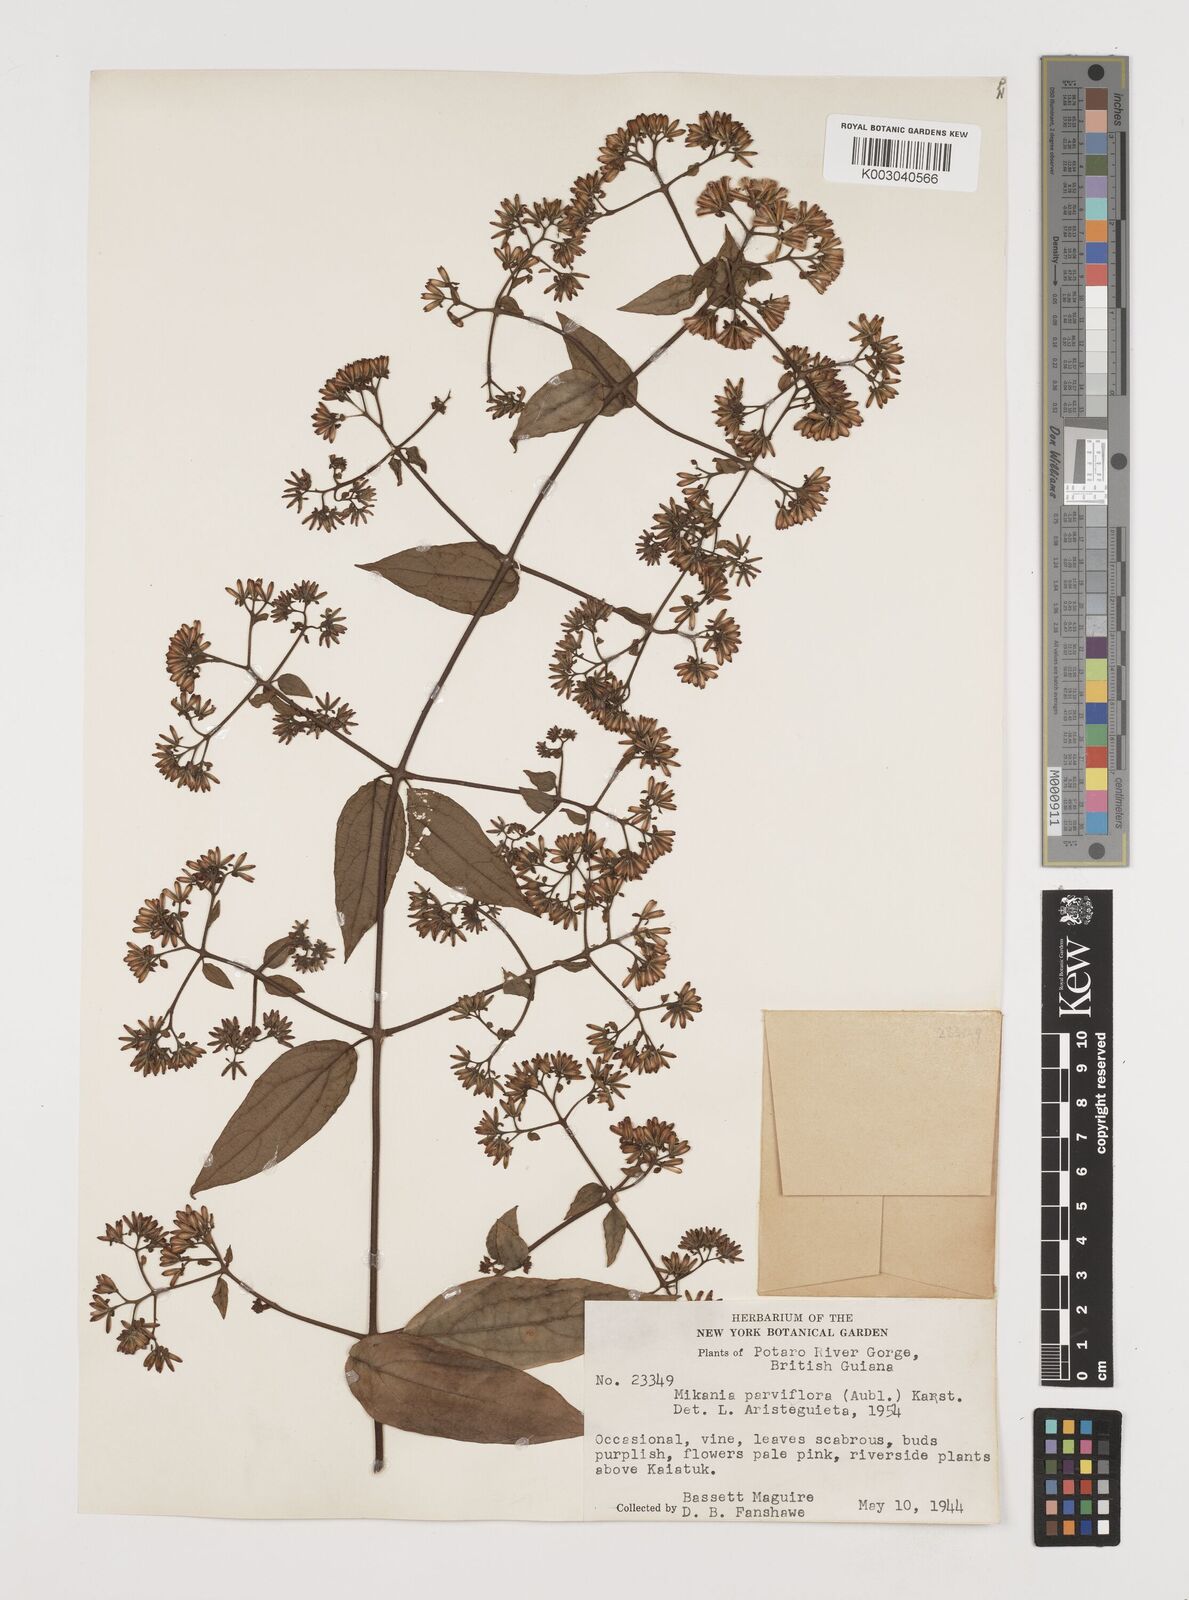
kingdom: Plantae
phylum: Tracheophyta
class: Magnoliopsida
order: Asterales
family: Asteraceae
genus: Mikania
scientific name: Mikania parviflora
